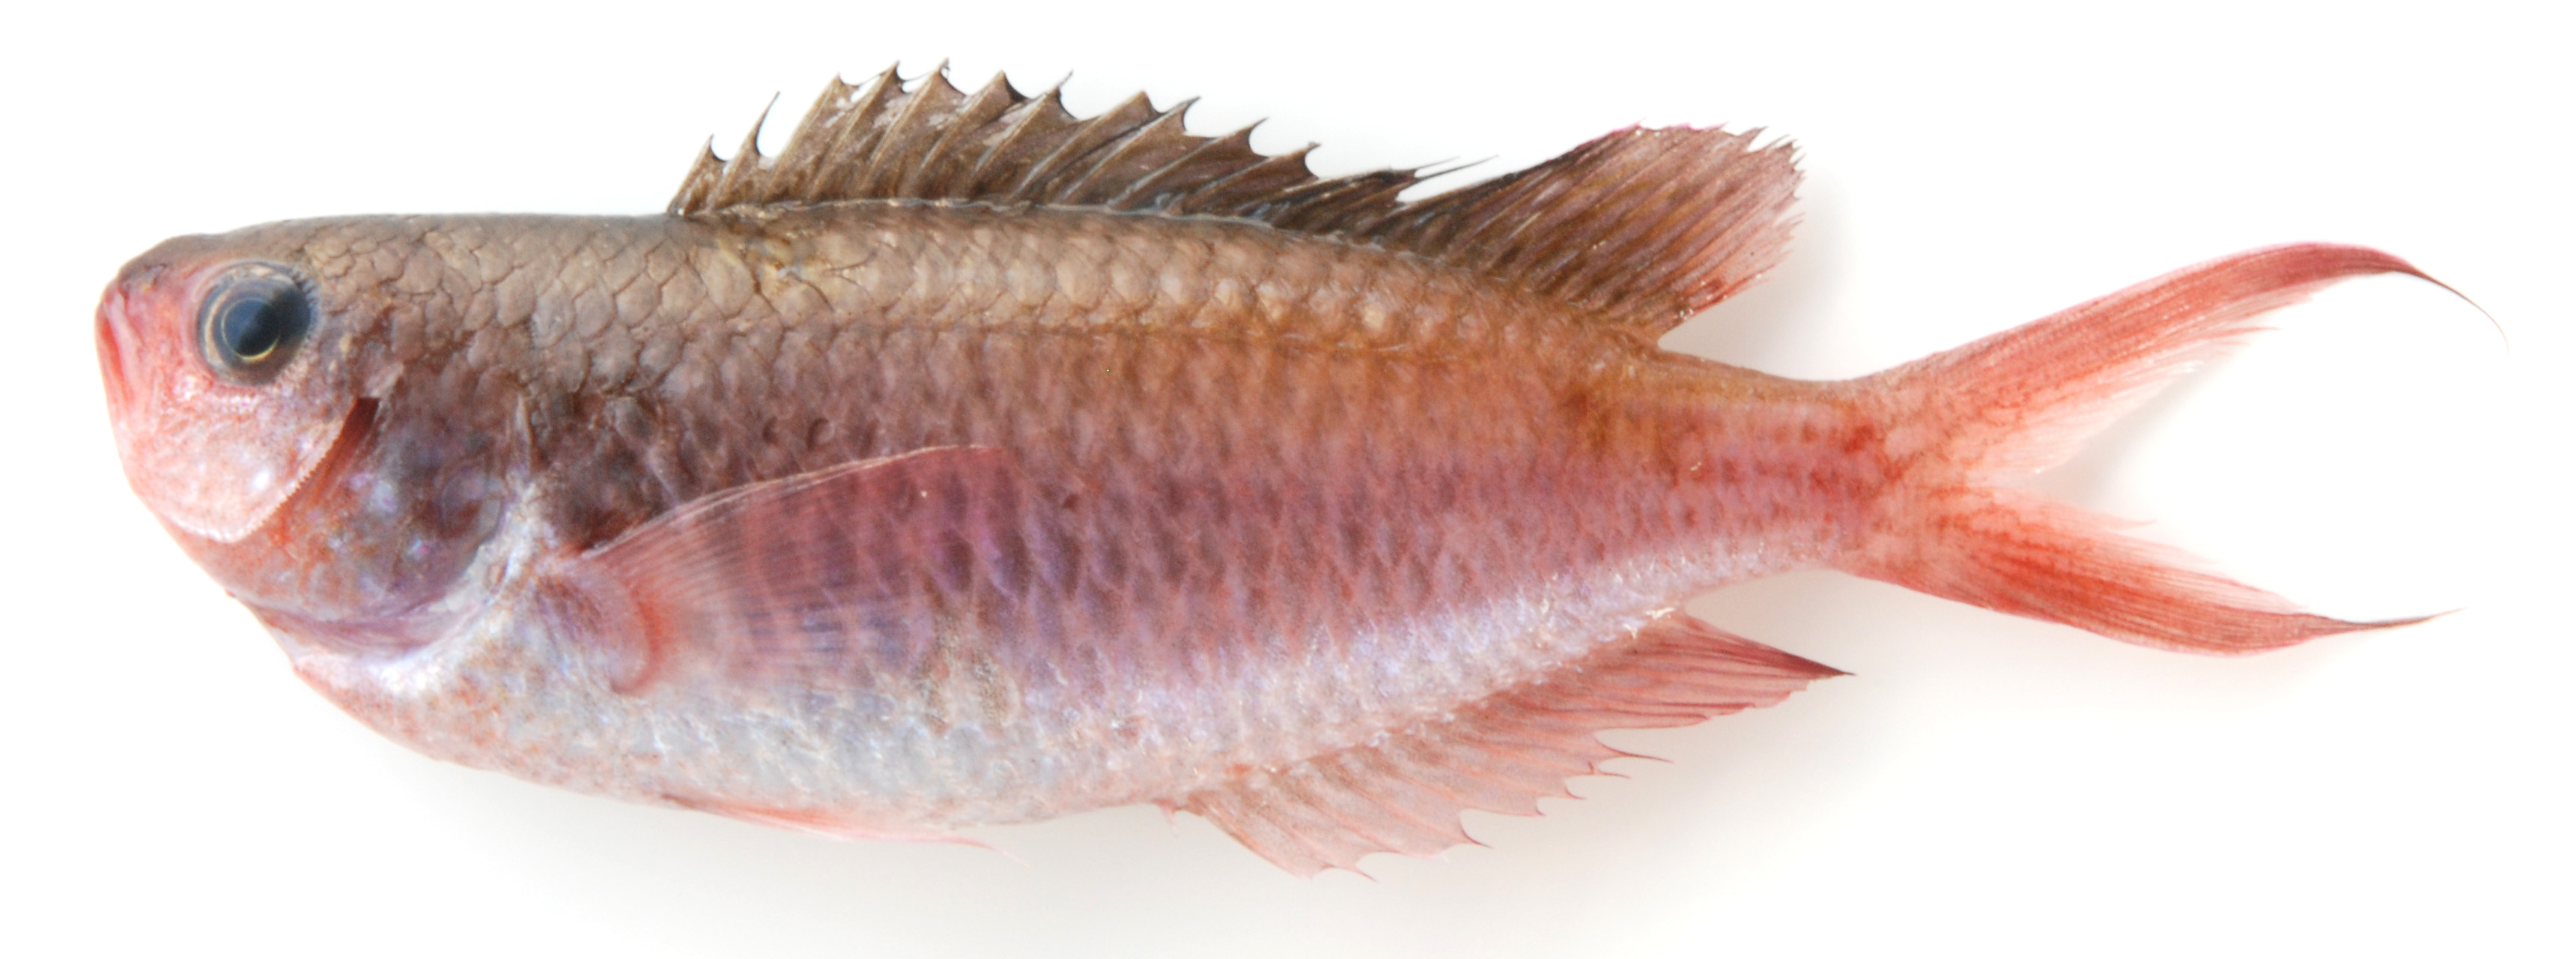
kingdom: Animalia
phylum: Chordata
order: Perciformes
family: Pomacentridae
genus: Lepidozygus
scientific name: Lepidozygus tapeinosoma
